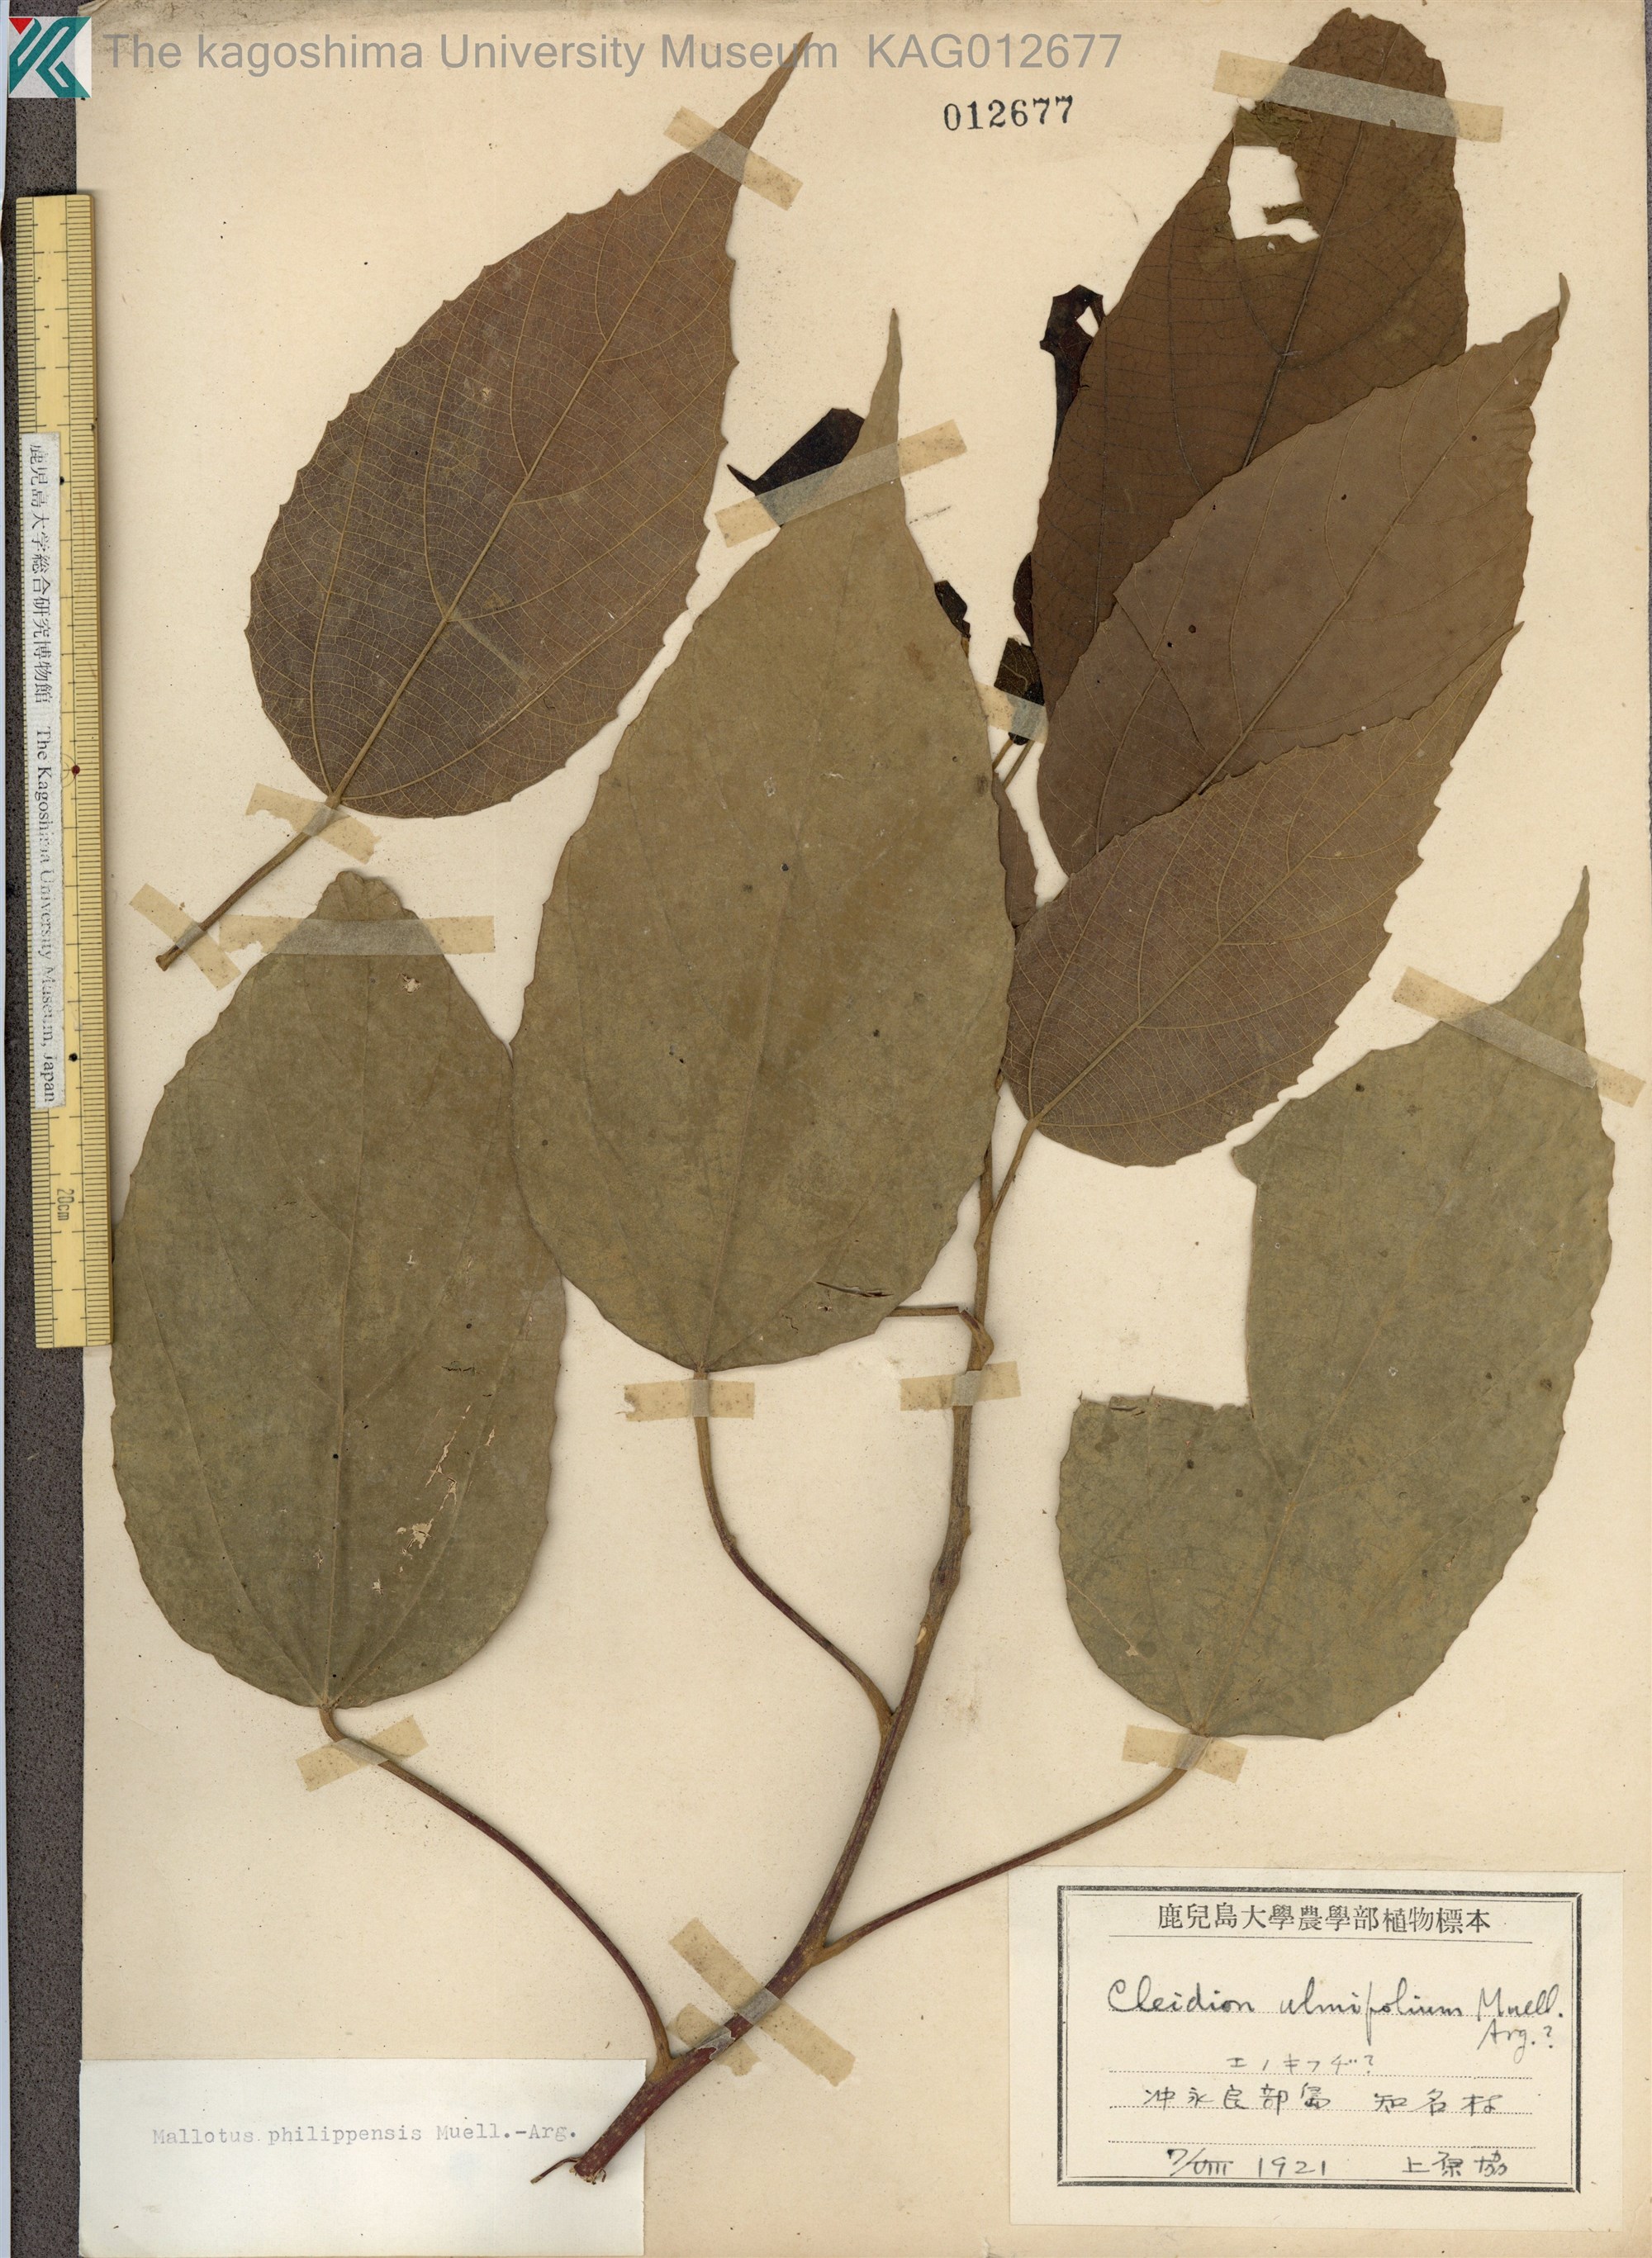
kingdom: Plantae
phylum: Tracheophyta
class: Magnoliopsida
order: Malpighiales
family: Euphorbiaceae
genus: Mallotus
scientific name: Mallotus philippensis
